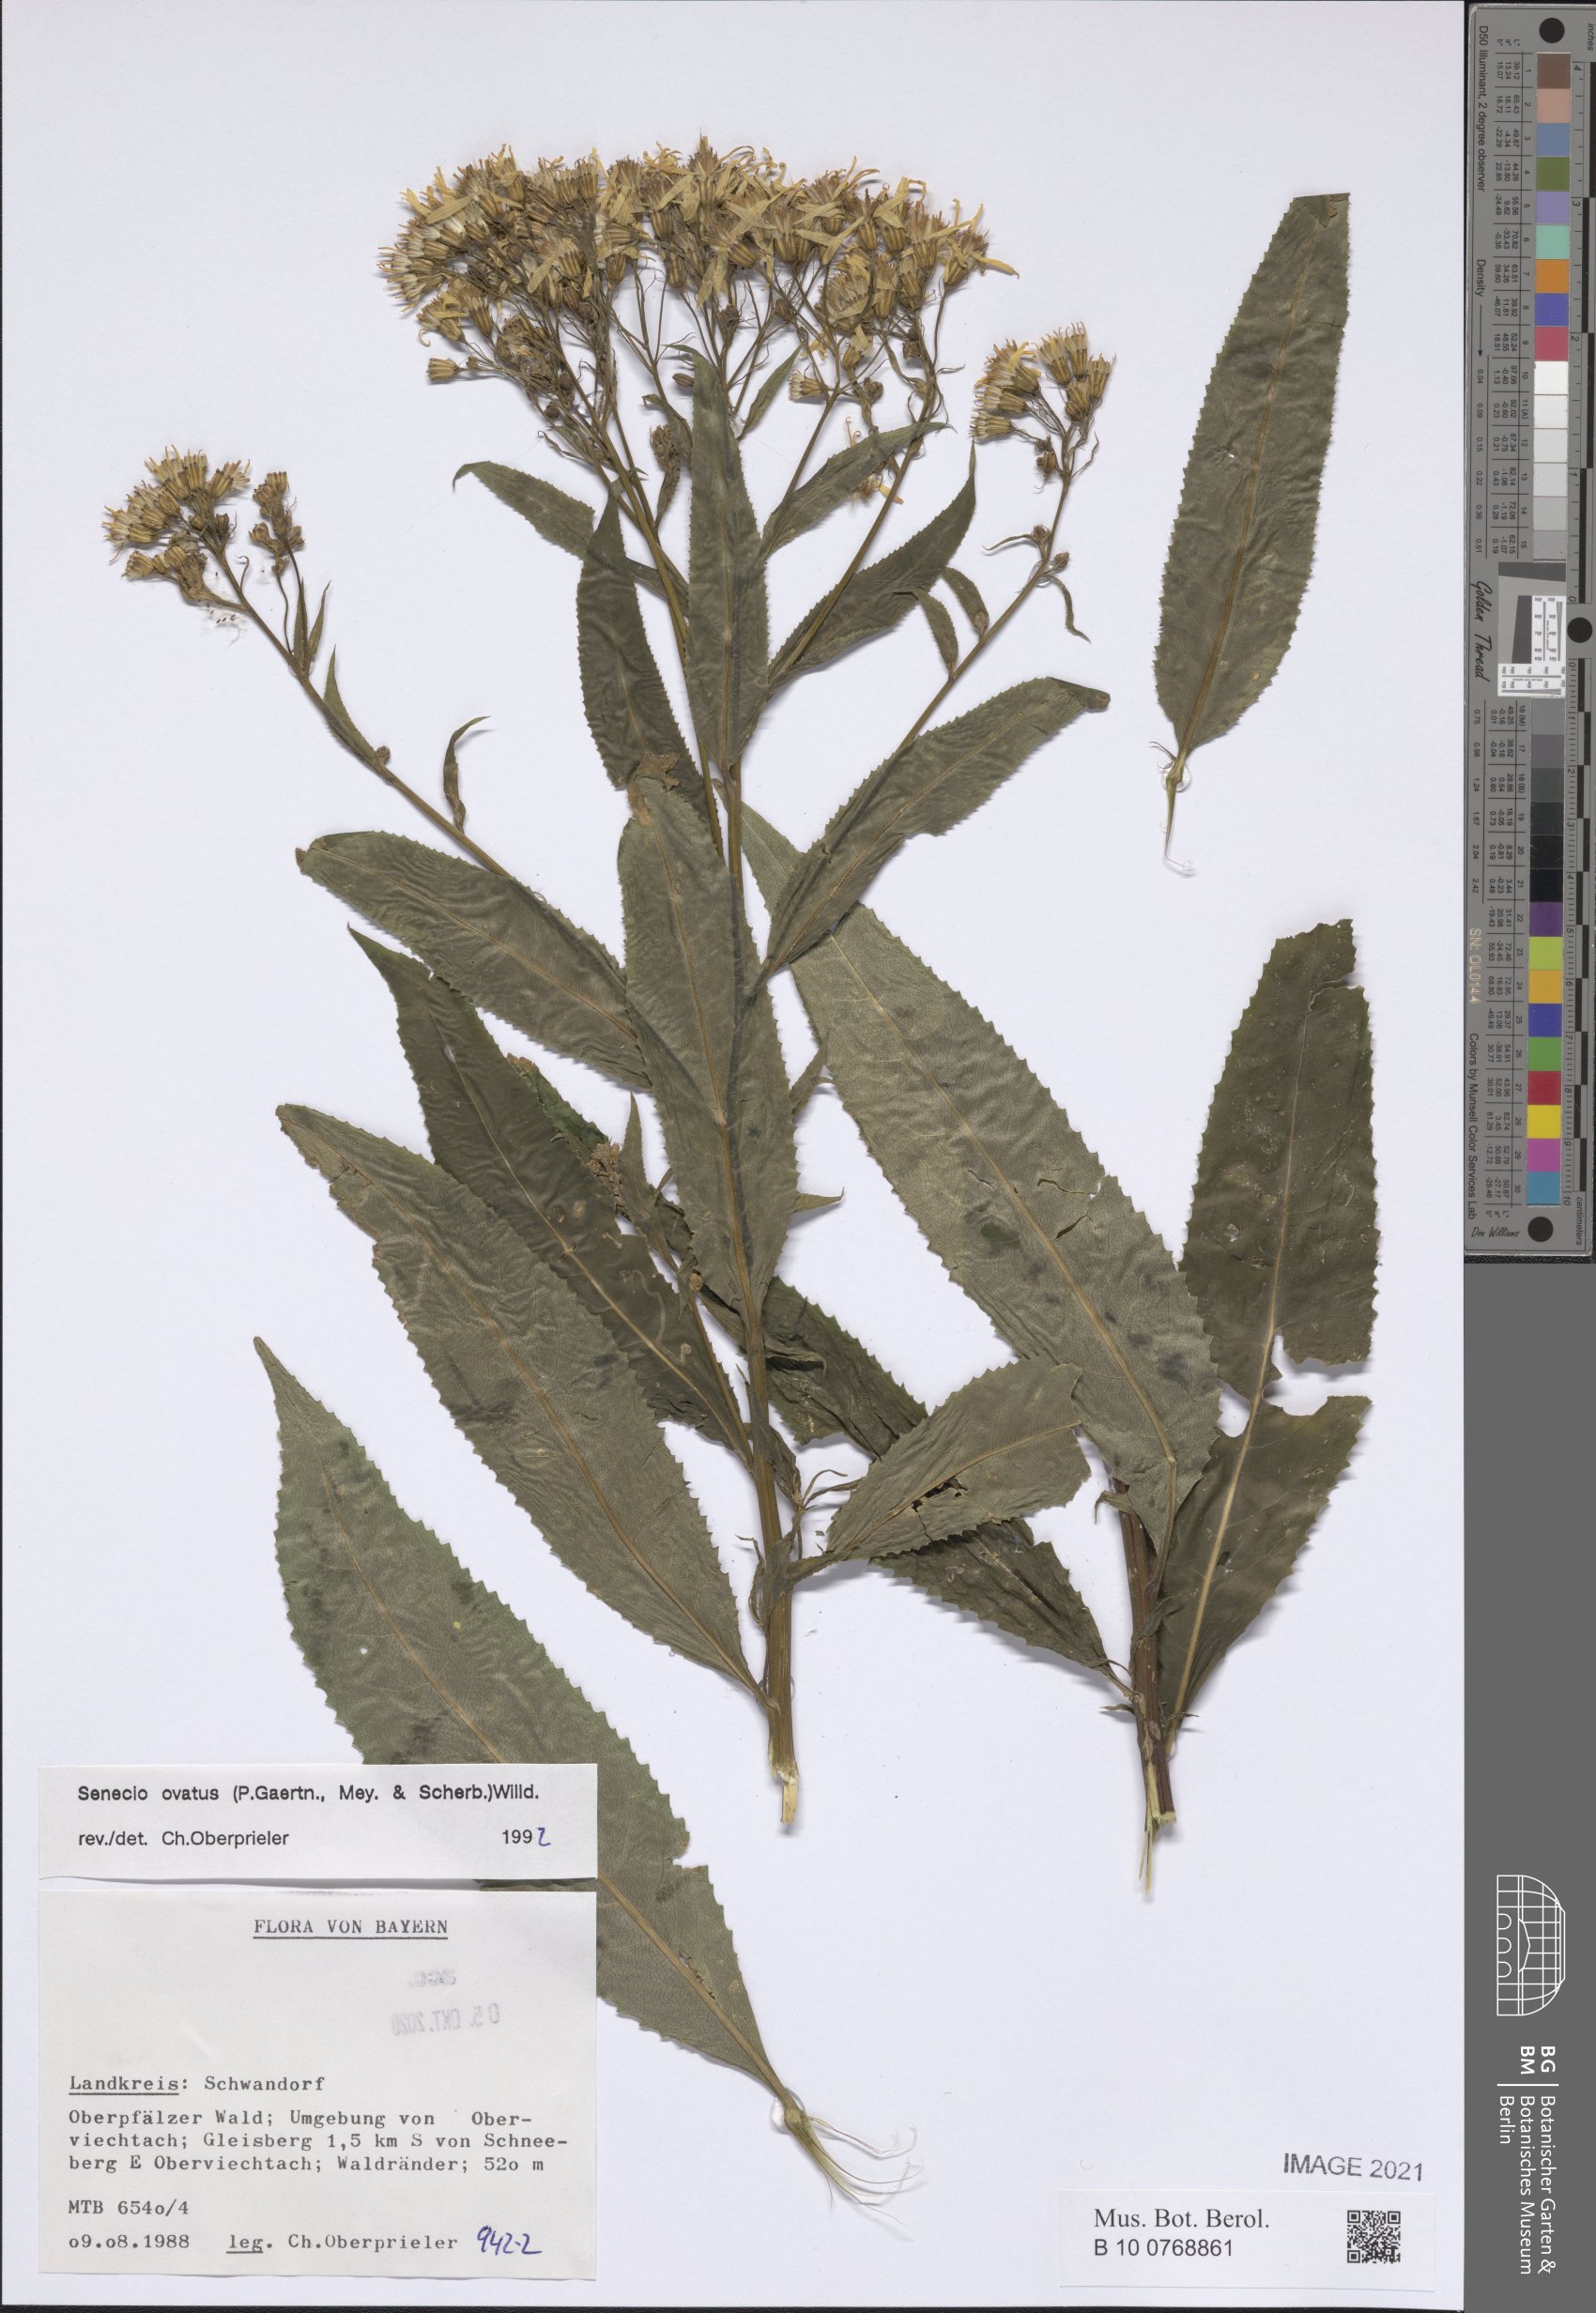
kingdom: Plantae
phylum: Tracheophyta
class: Magnoliopsida
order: Asterales
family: Asteraceae
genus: Senecio
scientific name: Senecio ovatus
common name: Wood ragwort
